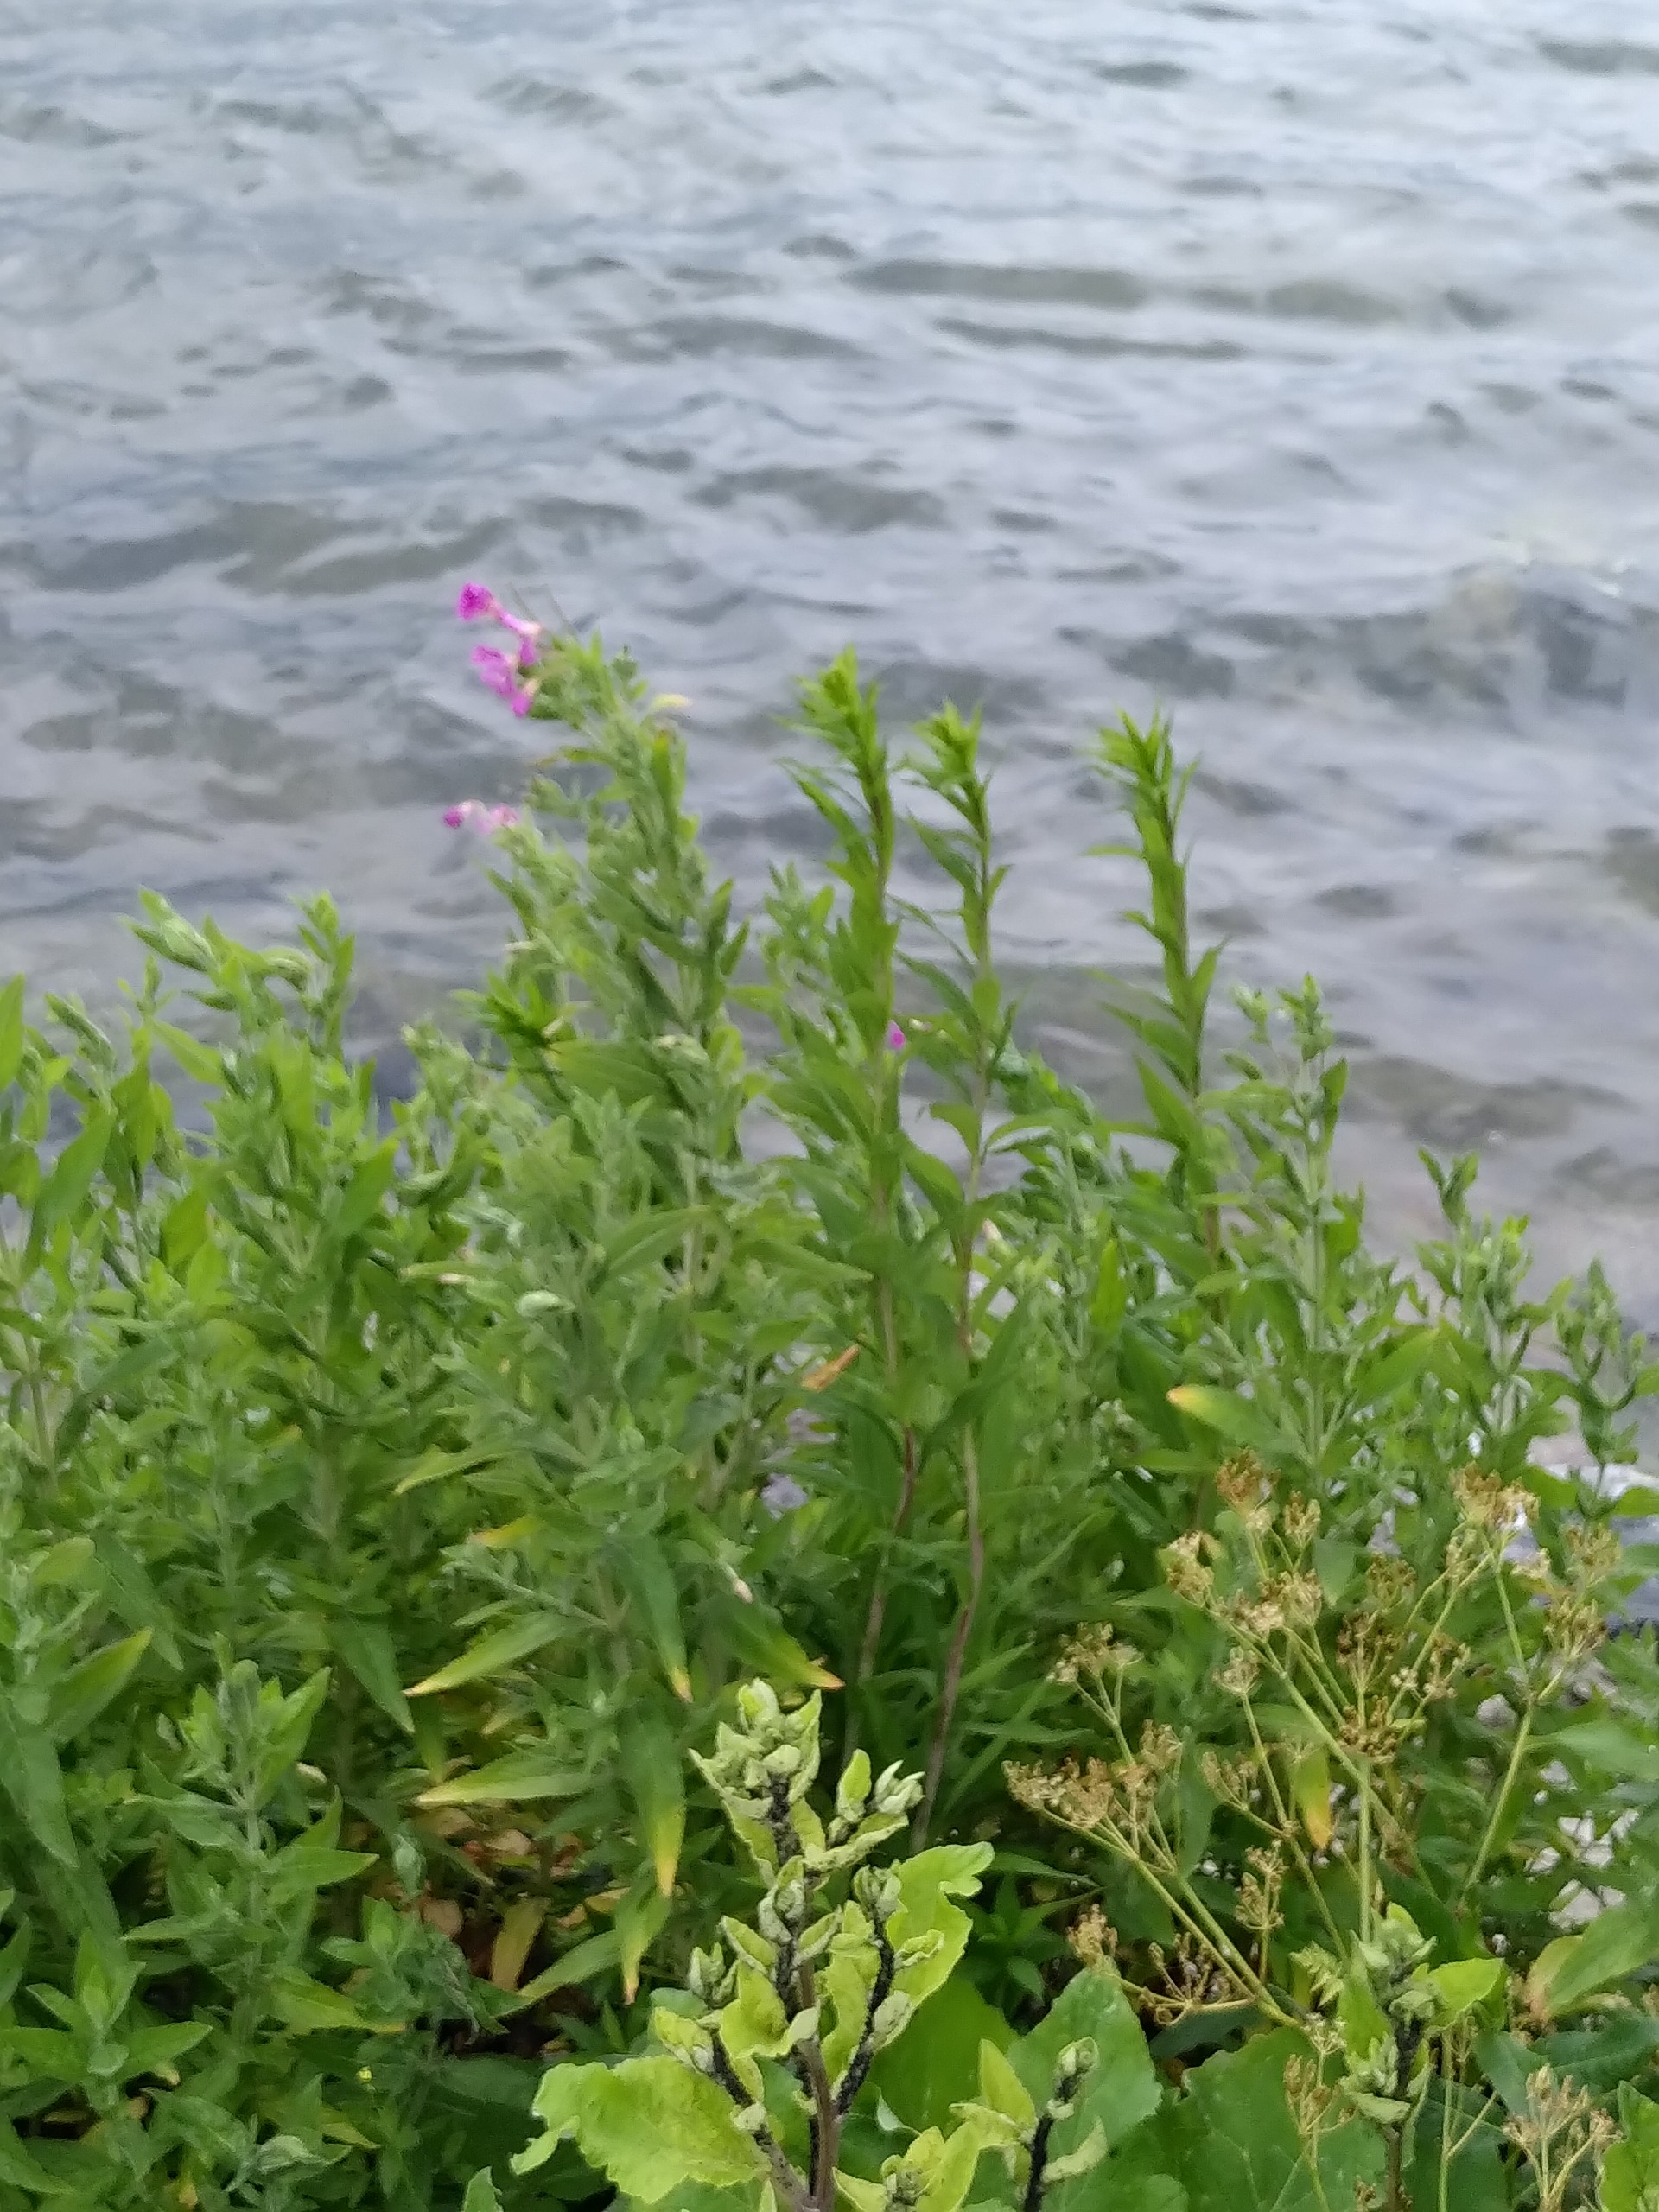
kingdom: Plantae
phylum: Tracheophyta
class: Magnoliopsida
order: Myrtales
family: Onagraceae
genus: Epilobium
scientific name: Epilobium hirsutum
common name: Lådden dueurt
